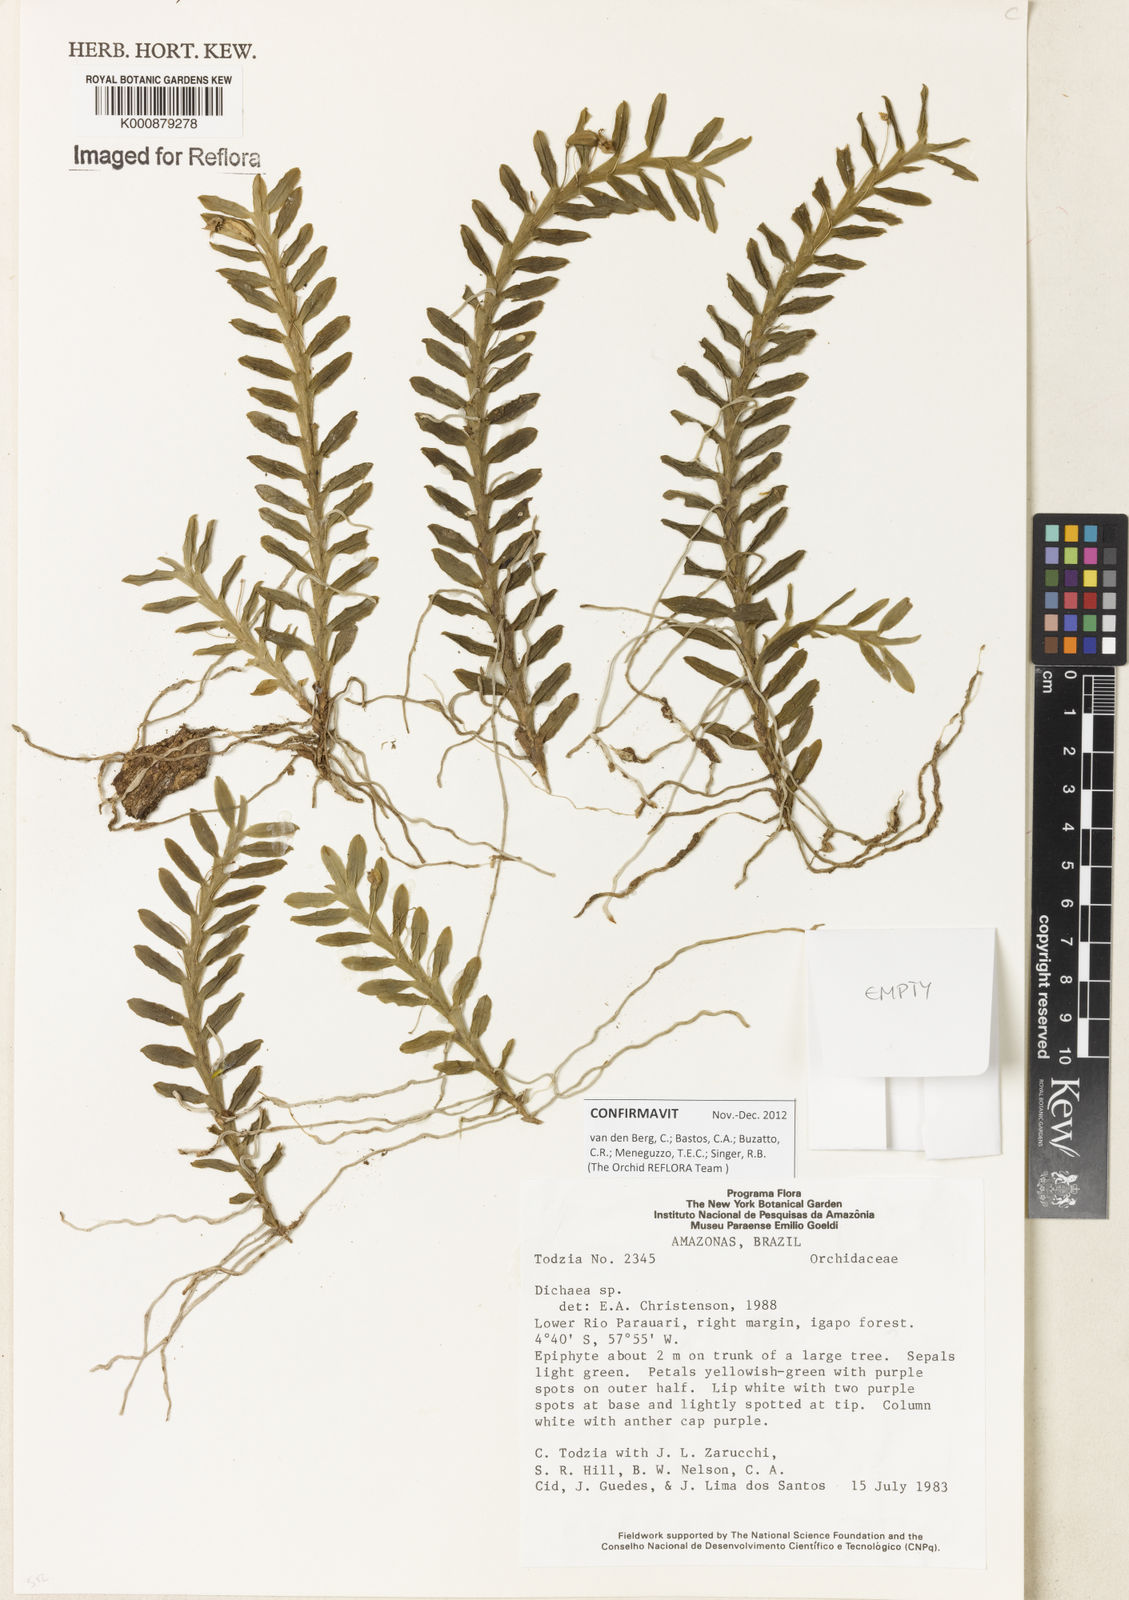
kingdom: Plantae
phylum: Tracheophyta
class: Liliopsida
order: Asparagales
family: Orchidaceae
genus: Dichaea
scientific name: Dichaea
